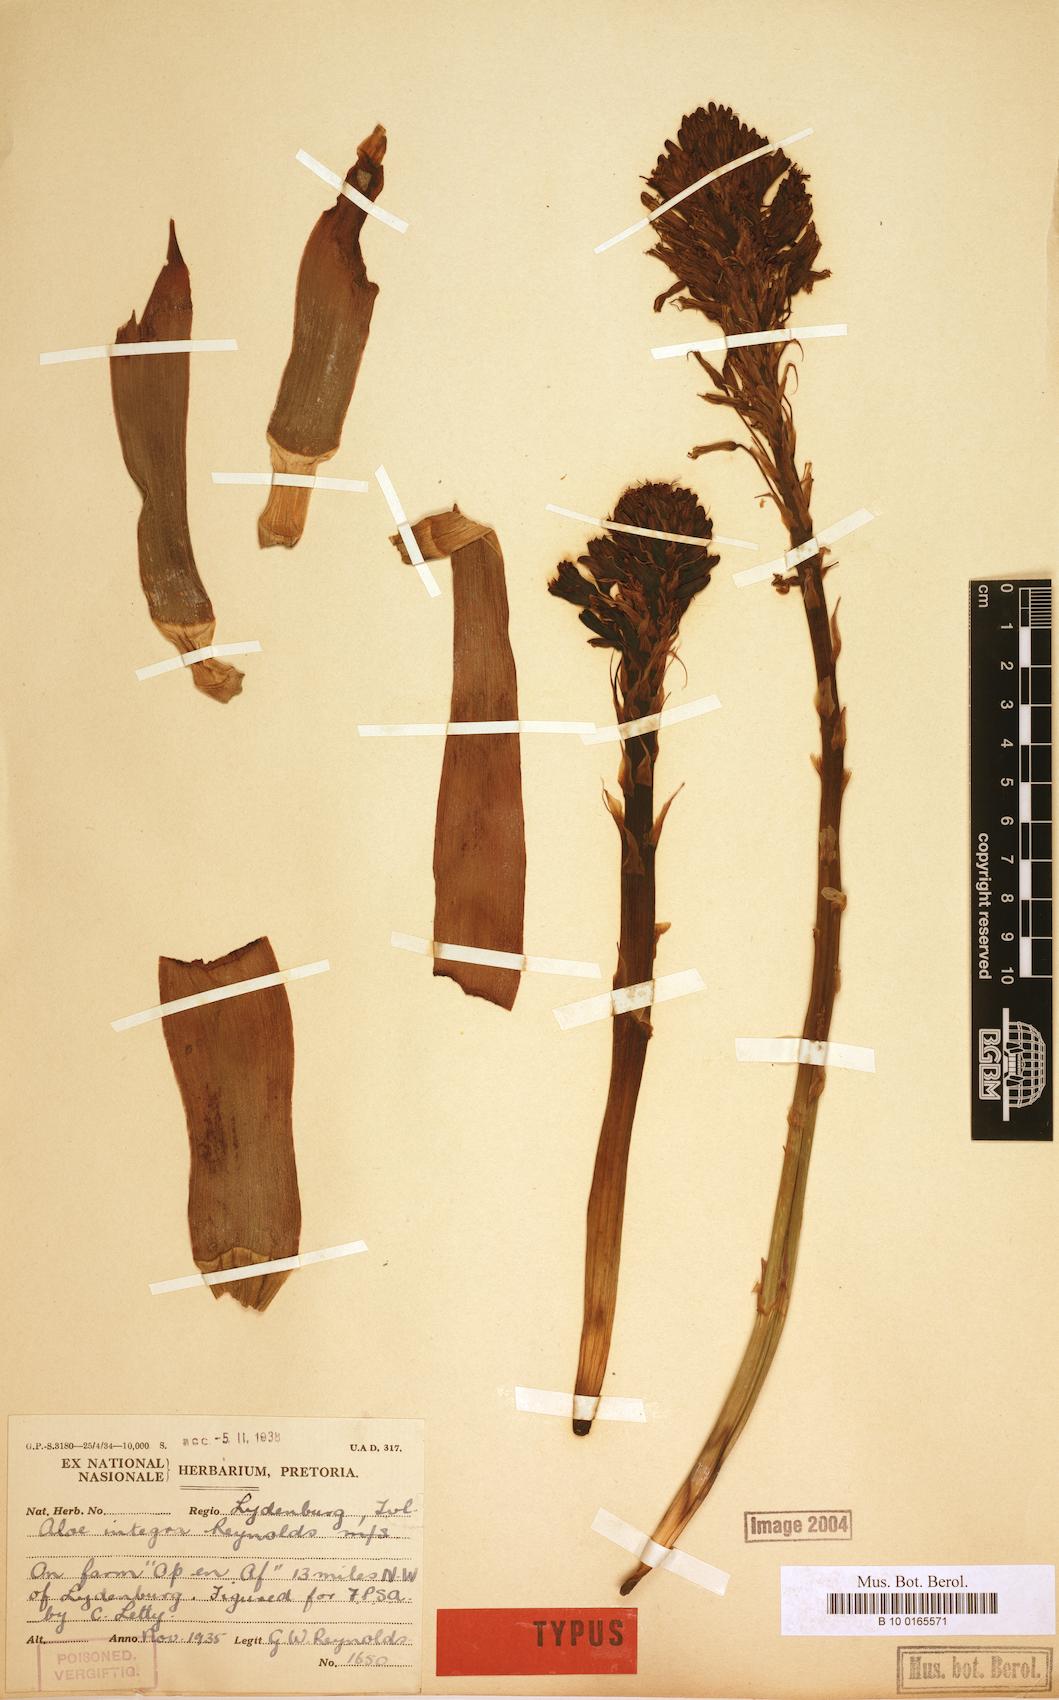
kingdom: Plantae
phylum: Tracheophyta
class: Liliopsida
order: Asparagales
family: Asphodelaceae
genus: Aloe
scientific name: Aloe integra
